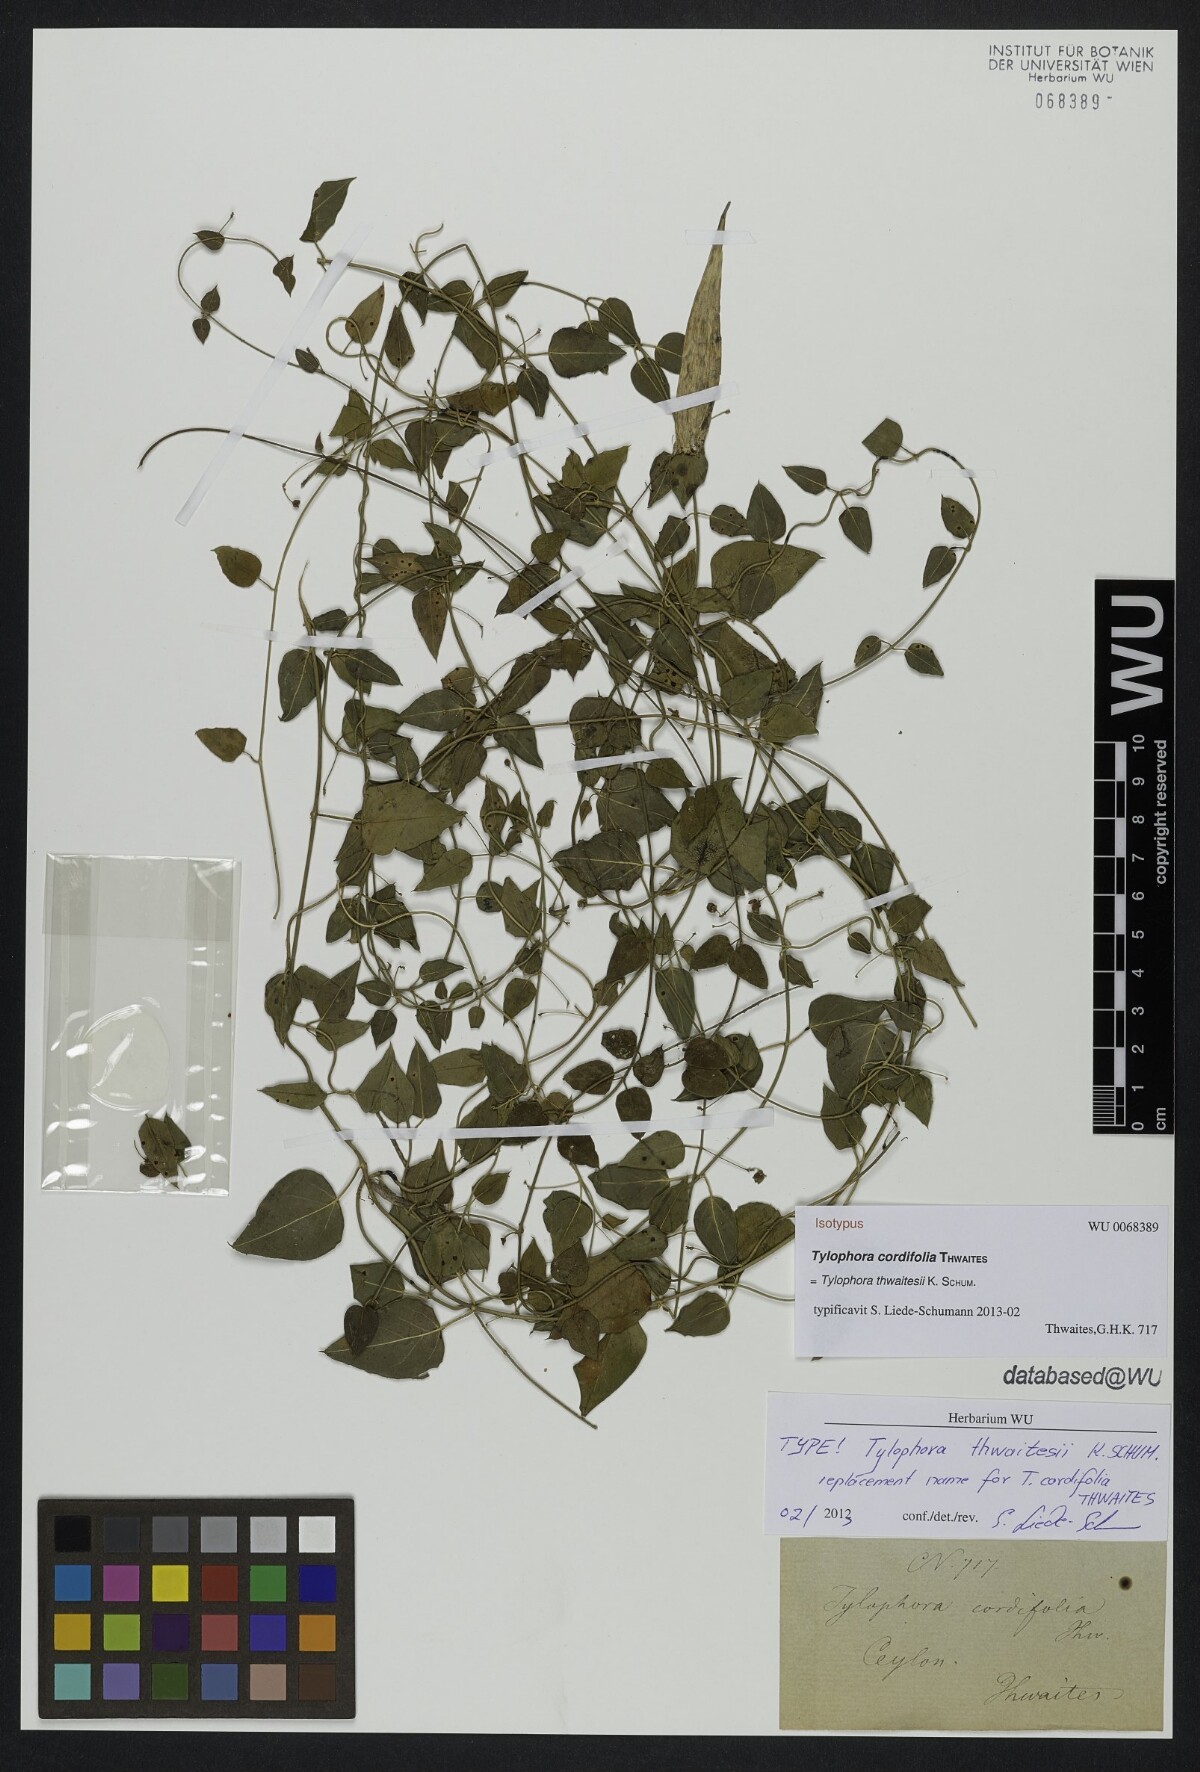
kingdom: Plantae
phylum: Tracheophyta
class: Magnoliopsida
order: Gentianales
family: Apocynaceae
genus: Vincetoxicum
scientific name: Vincetoxicum cordifolium
